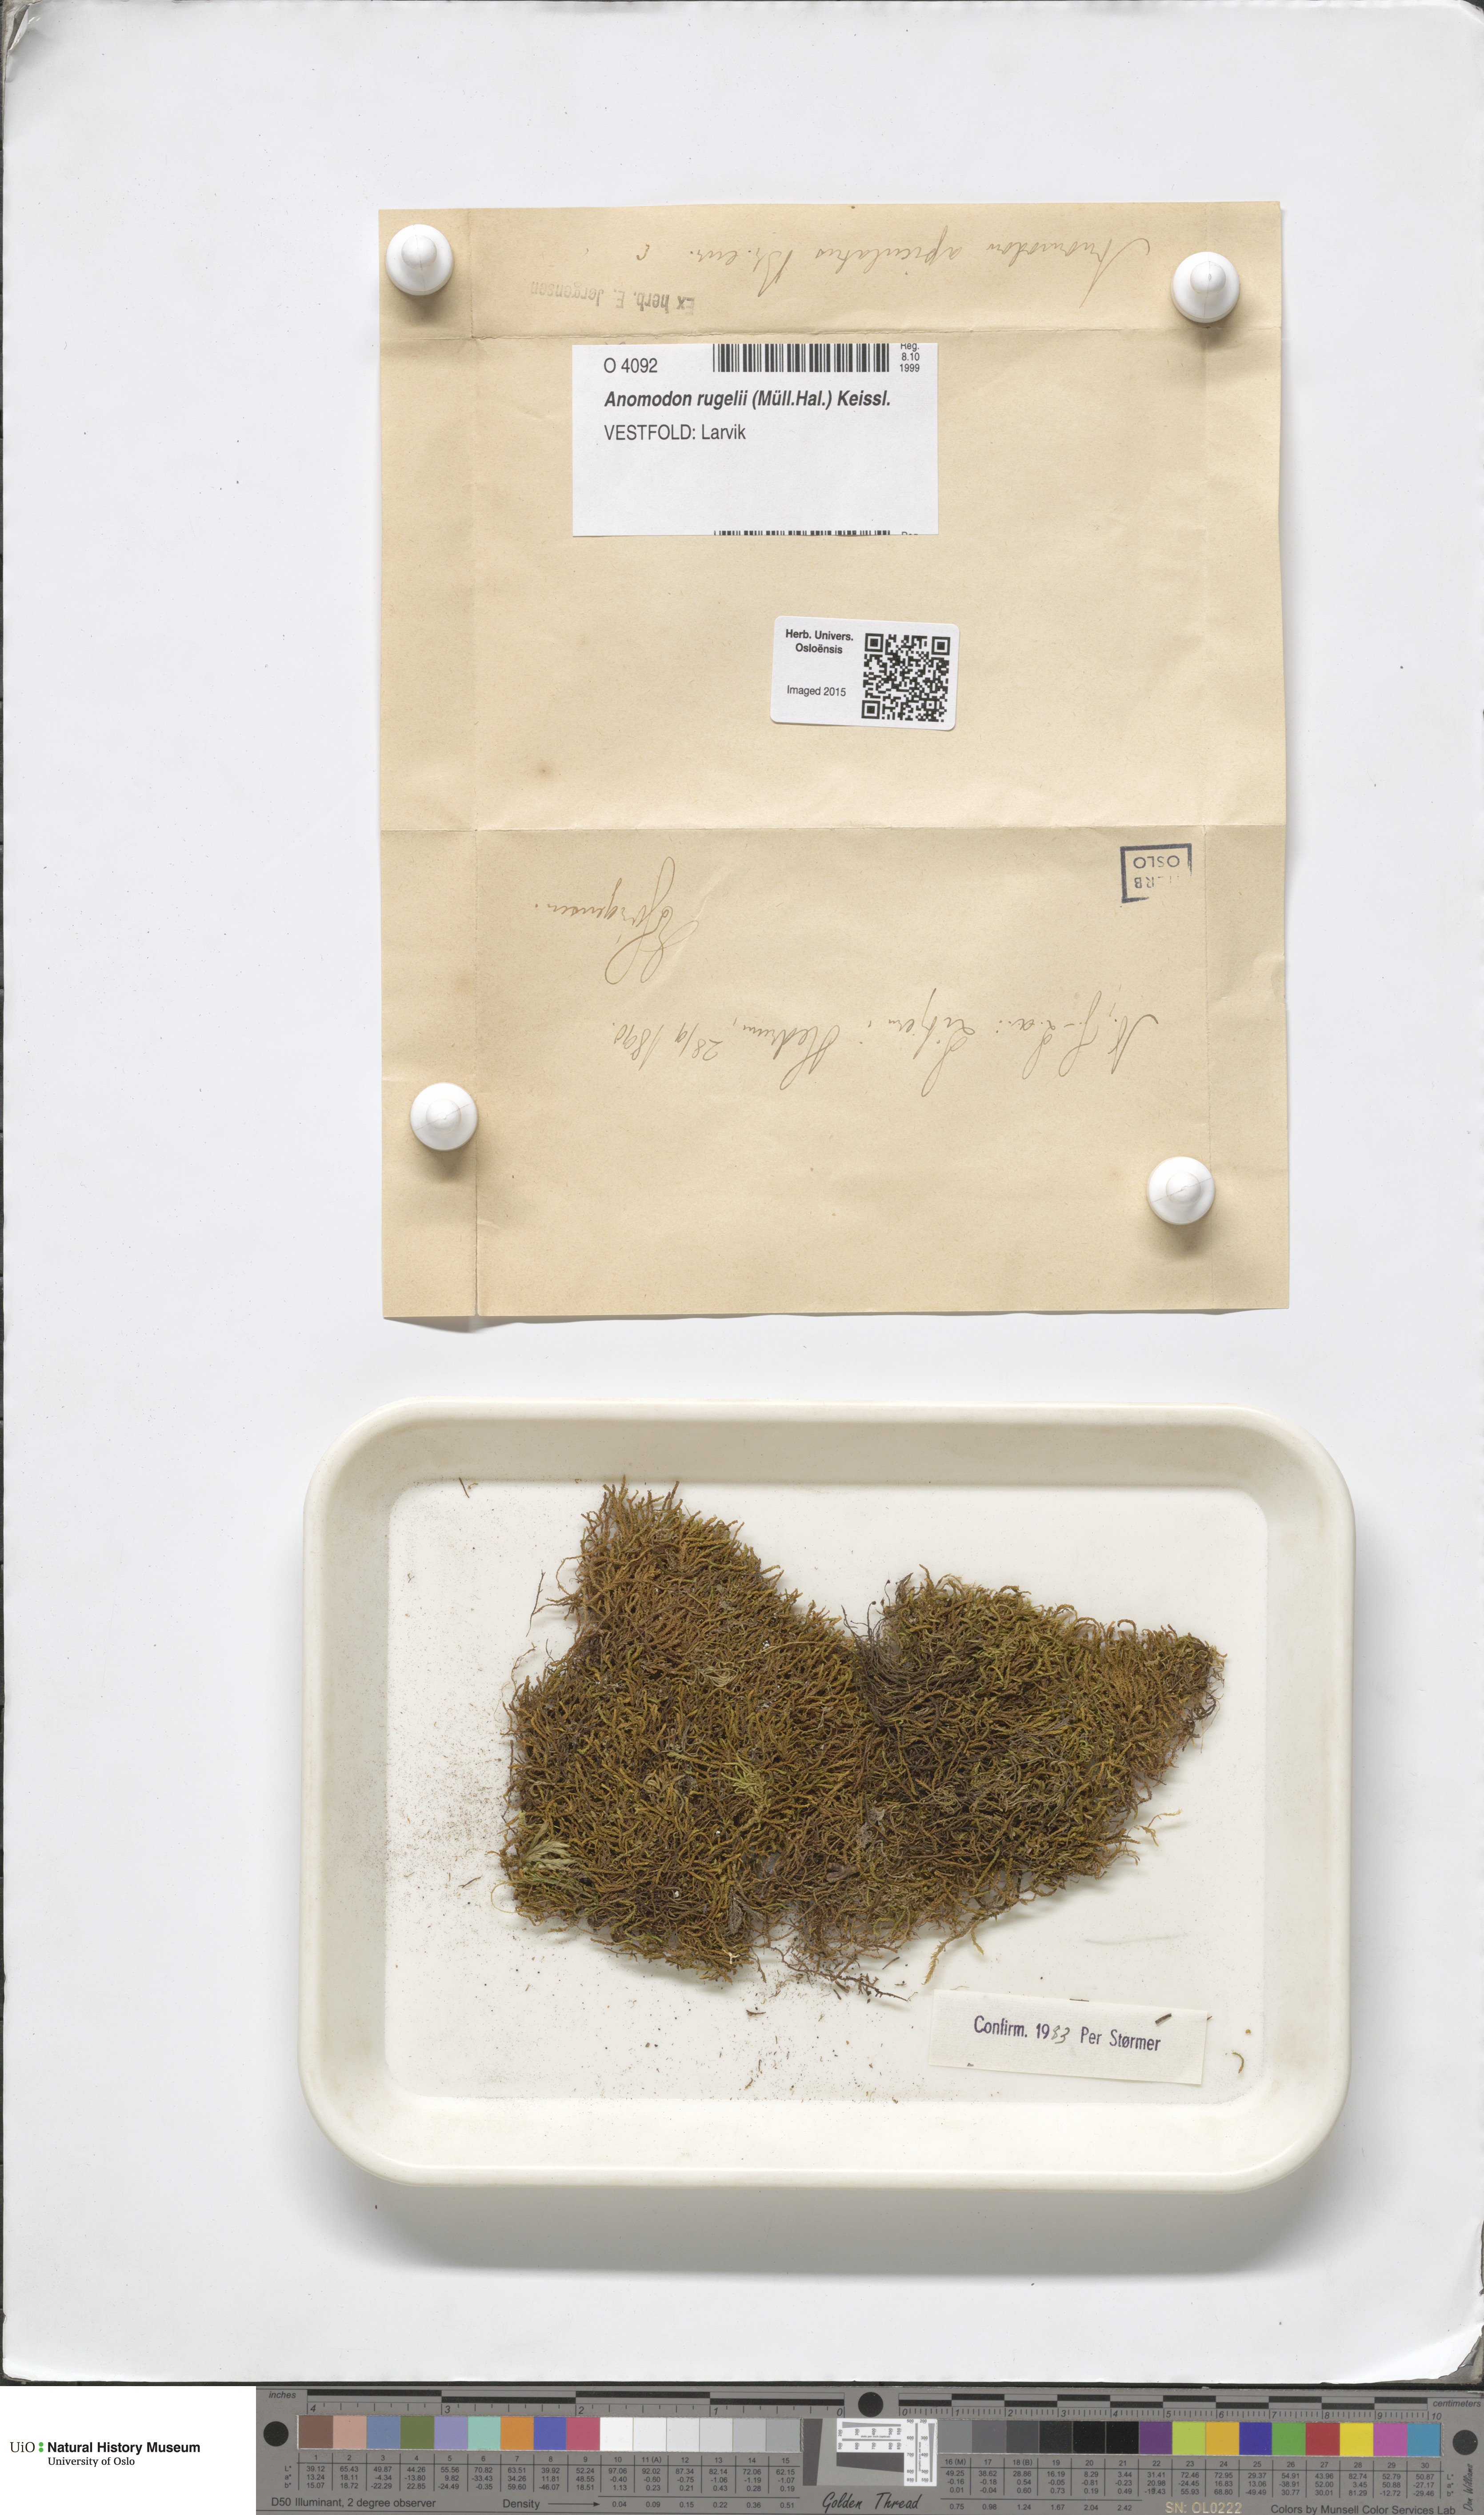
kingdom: Plantae
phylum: Bryophyta
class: Bryopsida
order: Hypnales
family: Anomodontaceae
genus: Anomodontopsis
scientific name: Anomodontopsis rugelii
